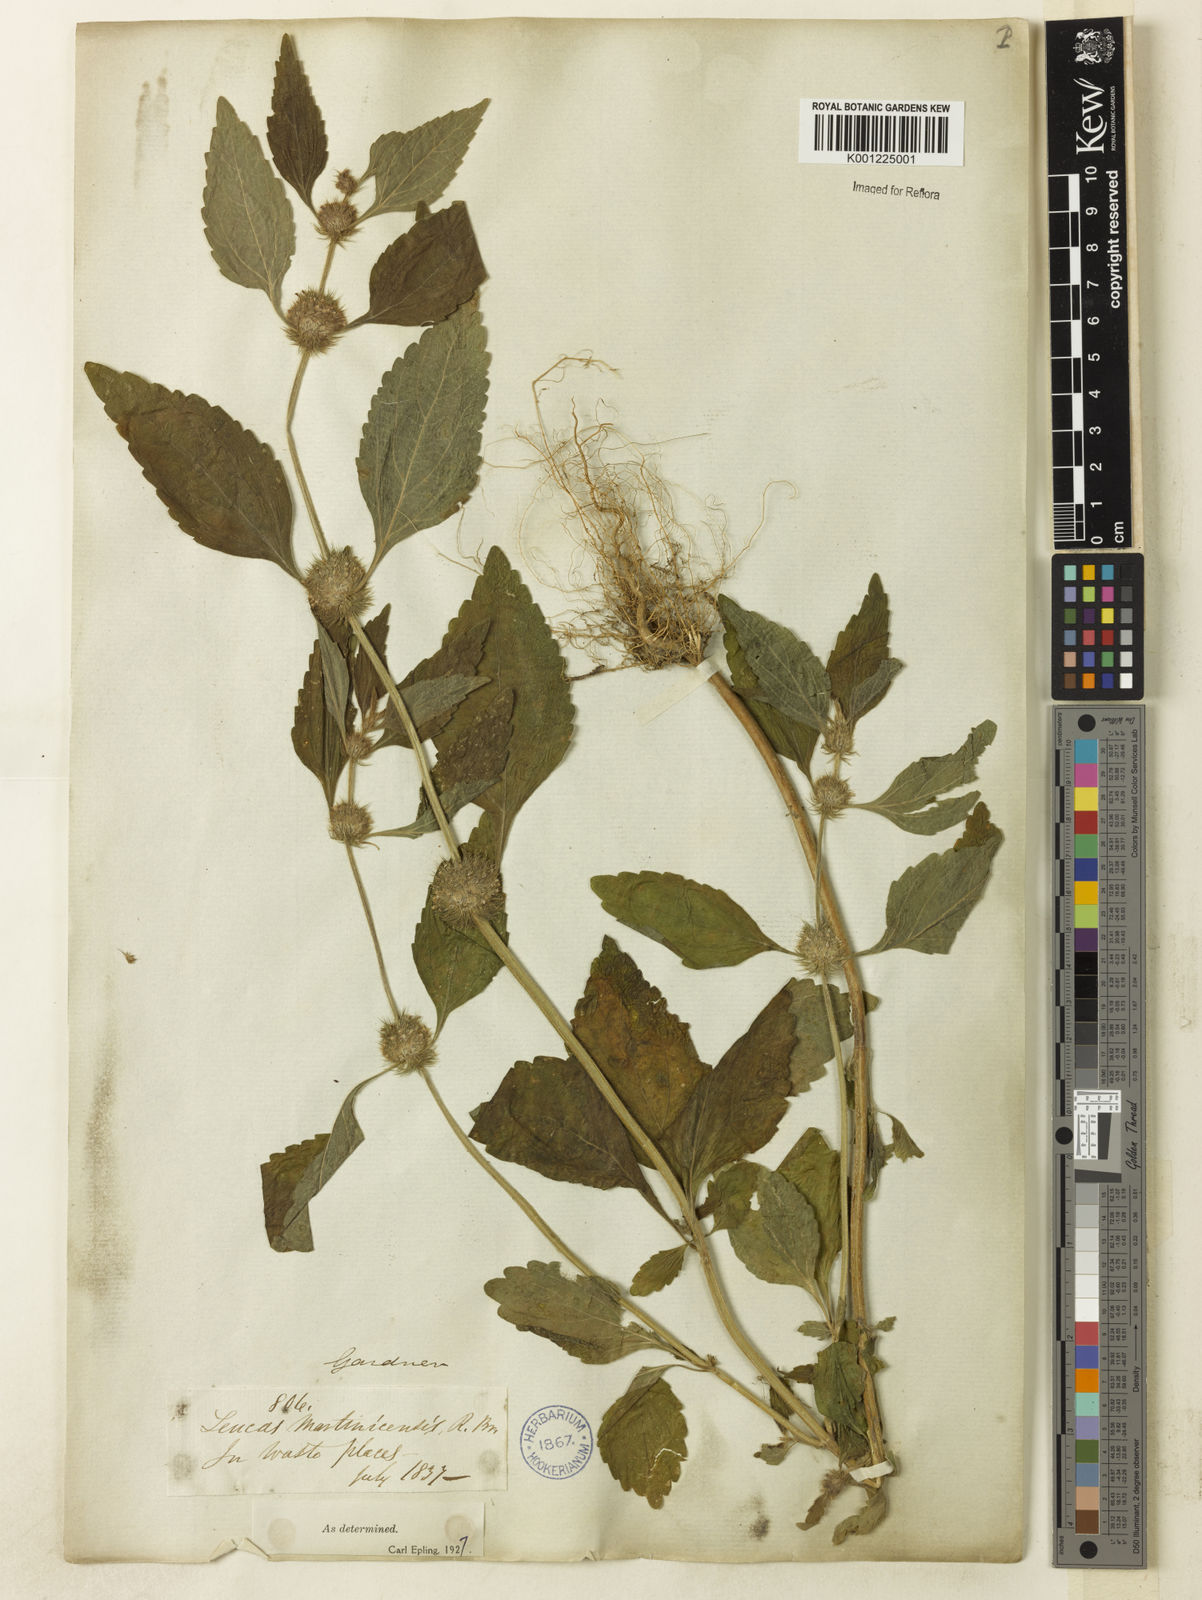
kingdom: Plantae
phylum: Tracheophyta
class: Magnoliopsida
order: Lamiales
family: Lamiaceae
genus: Leucas
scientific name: Leucas martinicensis
